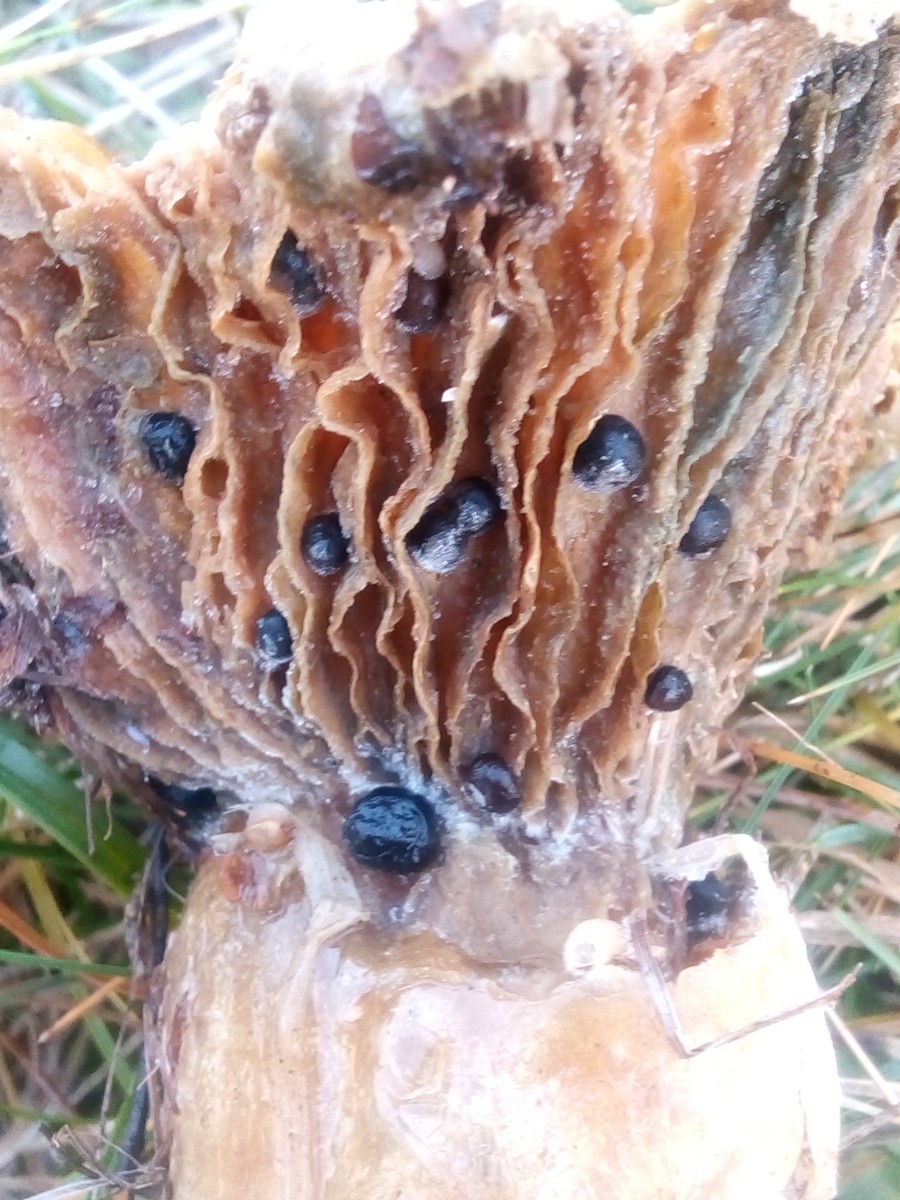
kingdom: Fungi
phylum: Basidiomycota
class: Agaricomycetes
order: Agaricales
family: Typhulaceae
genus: Sclerotium
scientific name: Sclerotium
